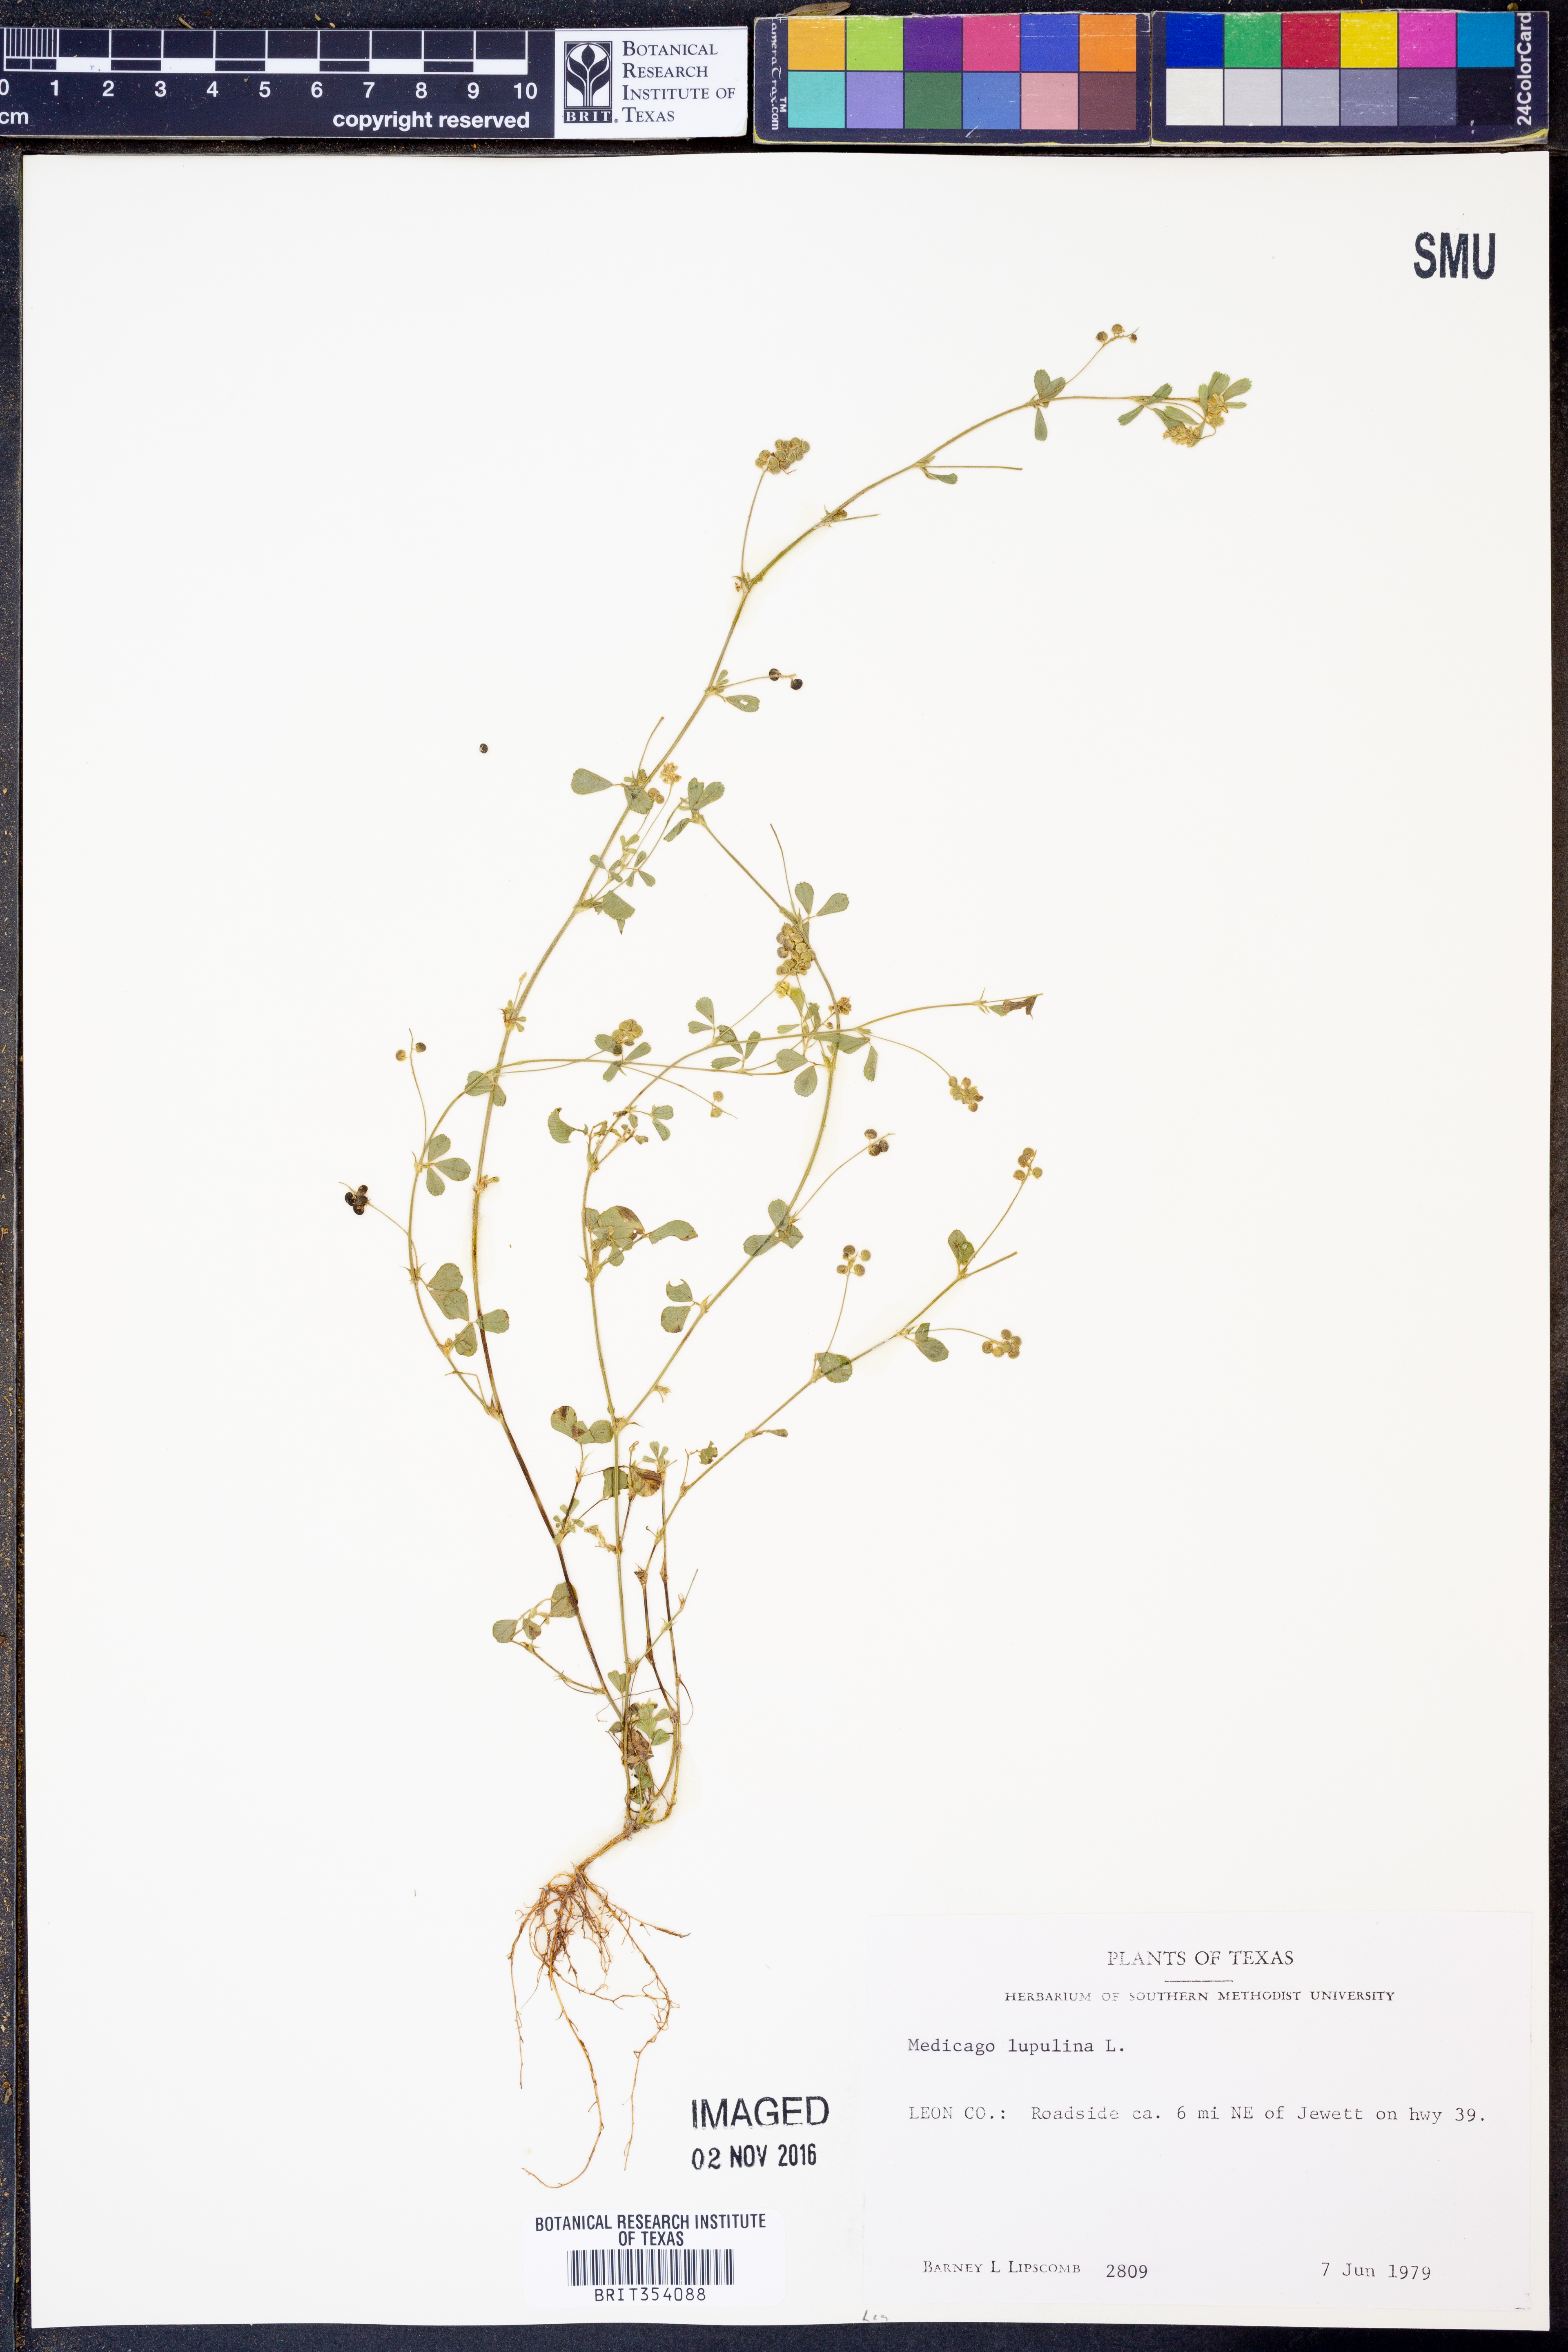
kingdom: Plantae
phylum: Tracheophyta
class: Magnoliopsida
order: Fabales
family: Fabaceae
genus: Medicago
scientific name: Medicago lupulina
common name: Black medick
